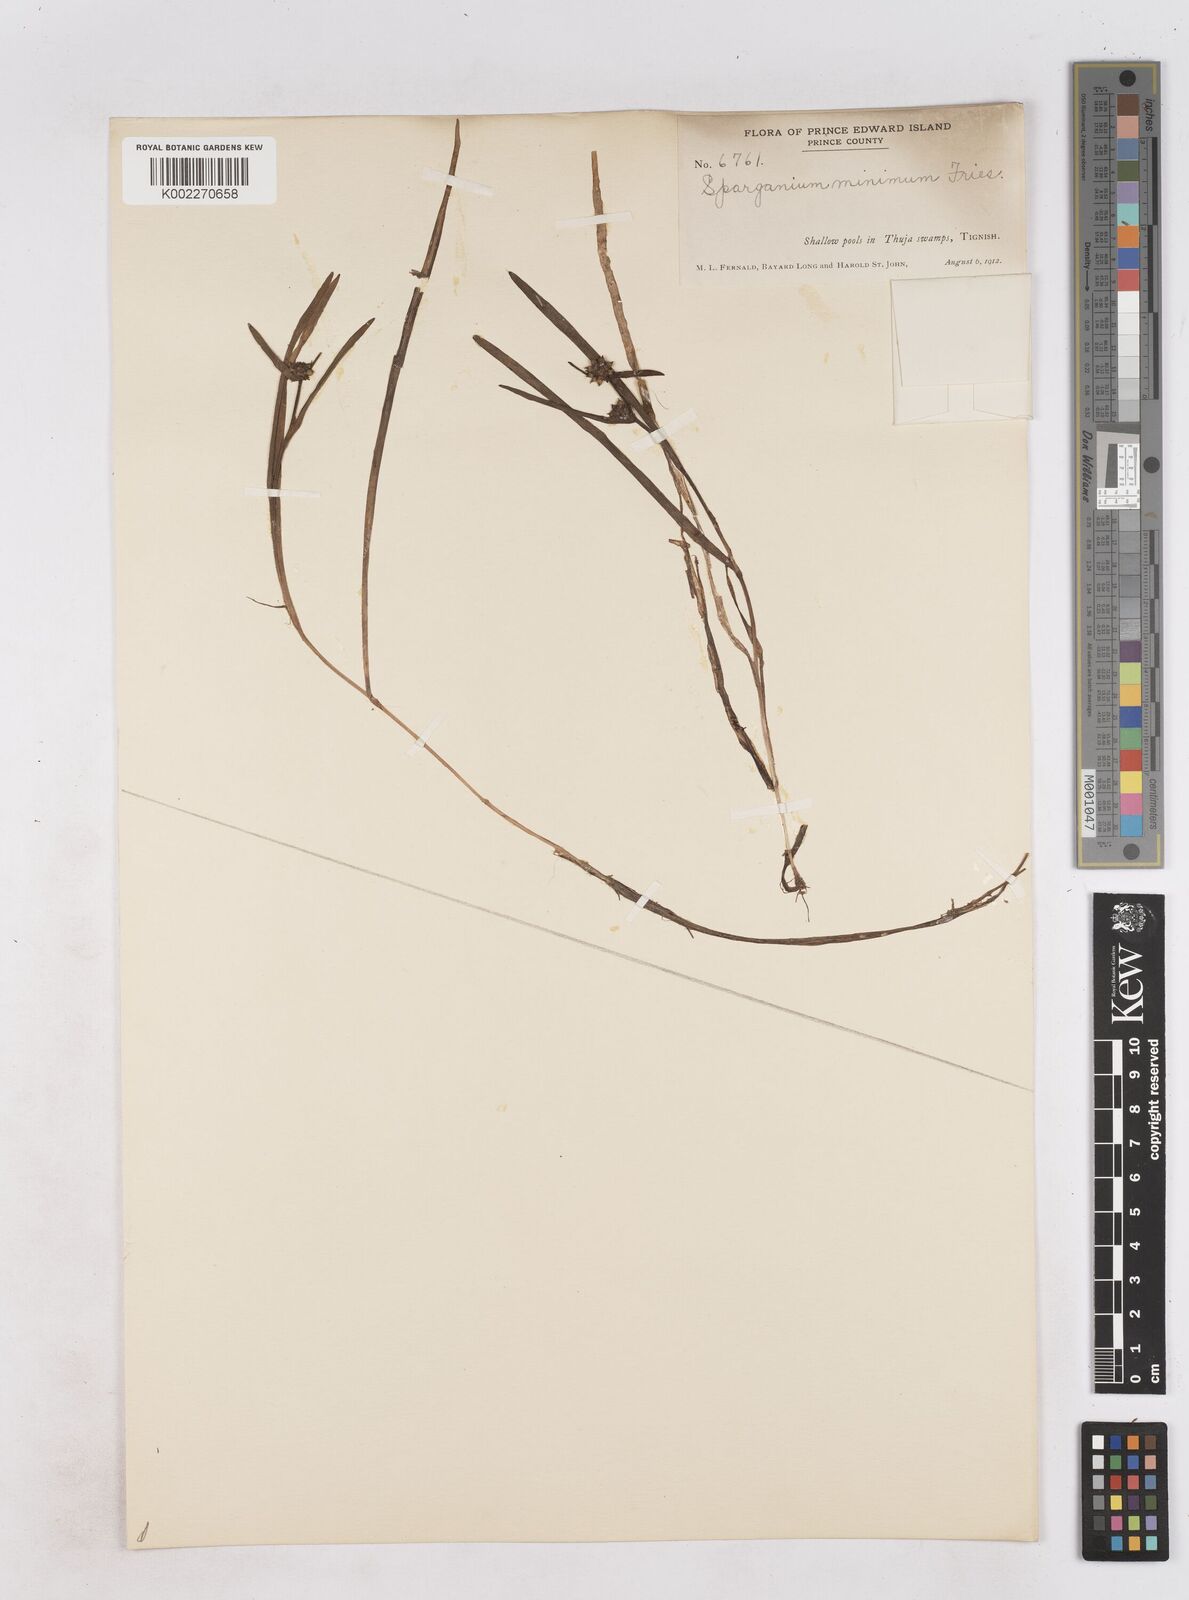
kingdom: Plantae
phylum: Tracheophyta
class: Liliopsida
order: Poales
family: Typhaceae
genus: Sparganium
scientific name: Sparganium natans
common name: Least bur-reed
